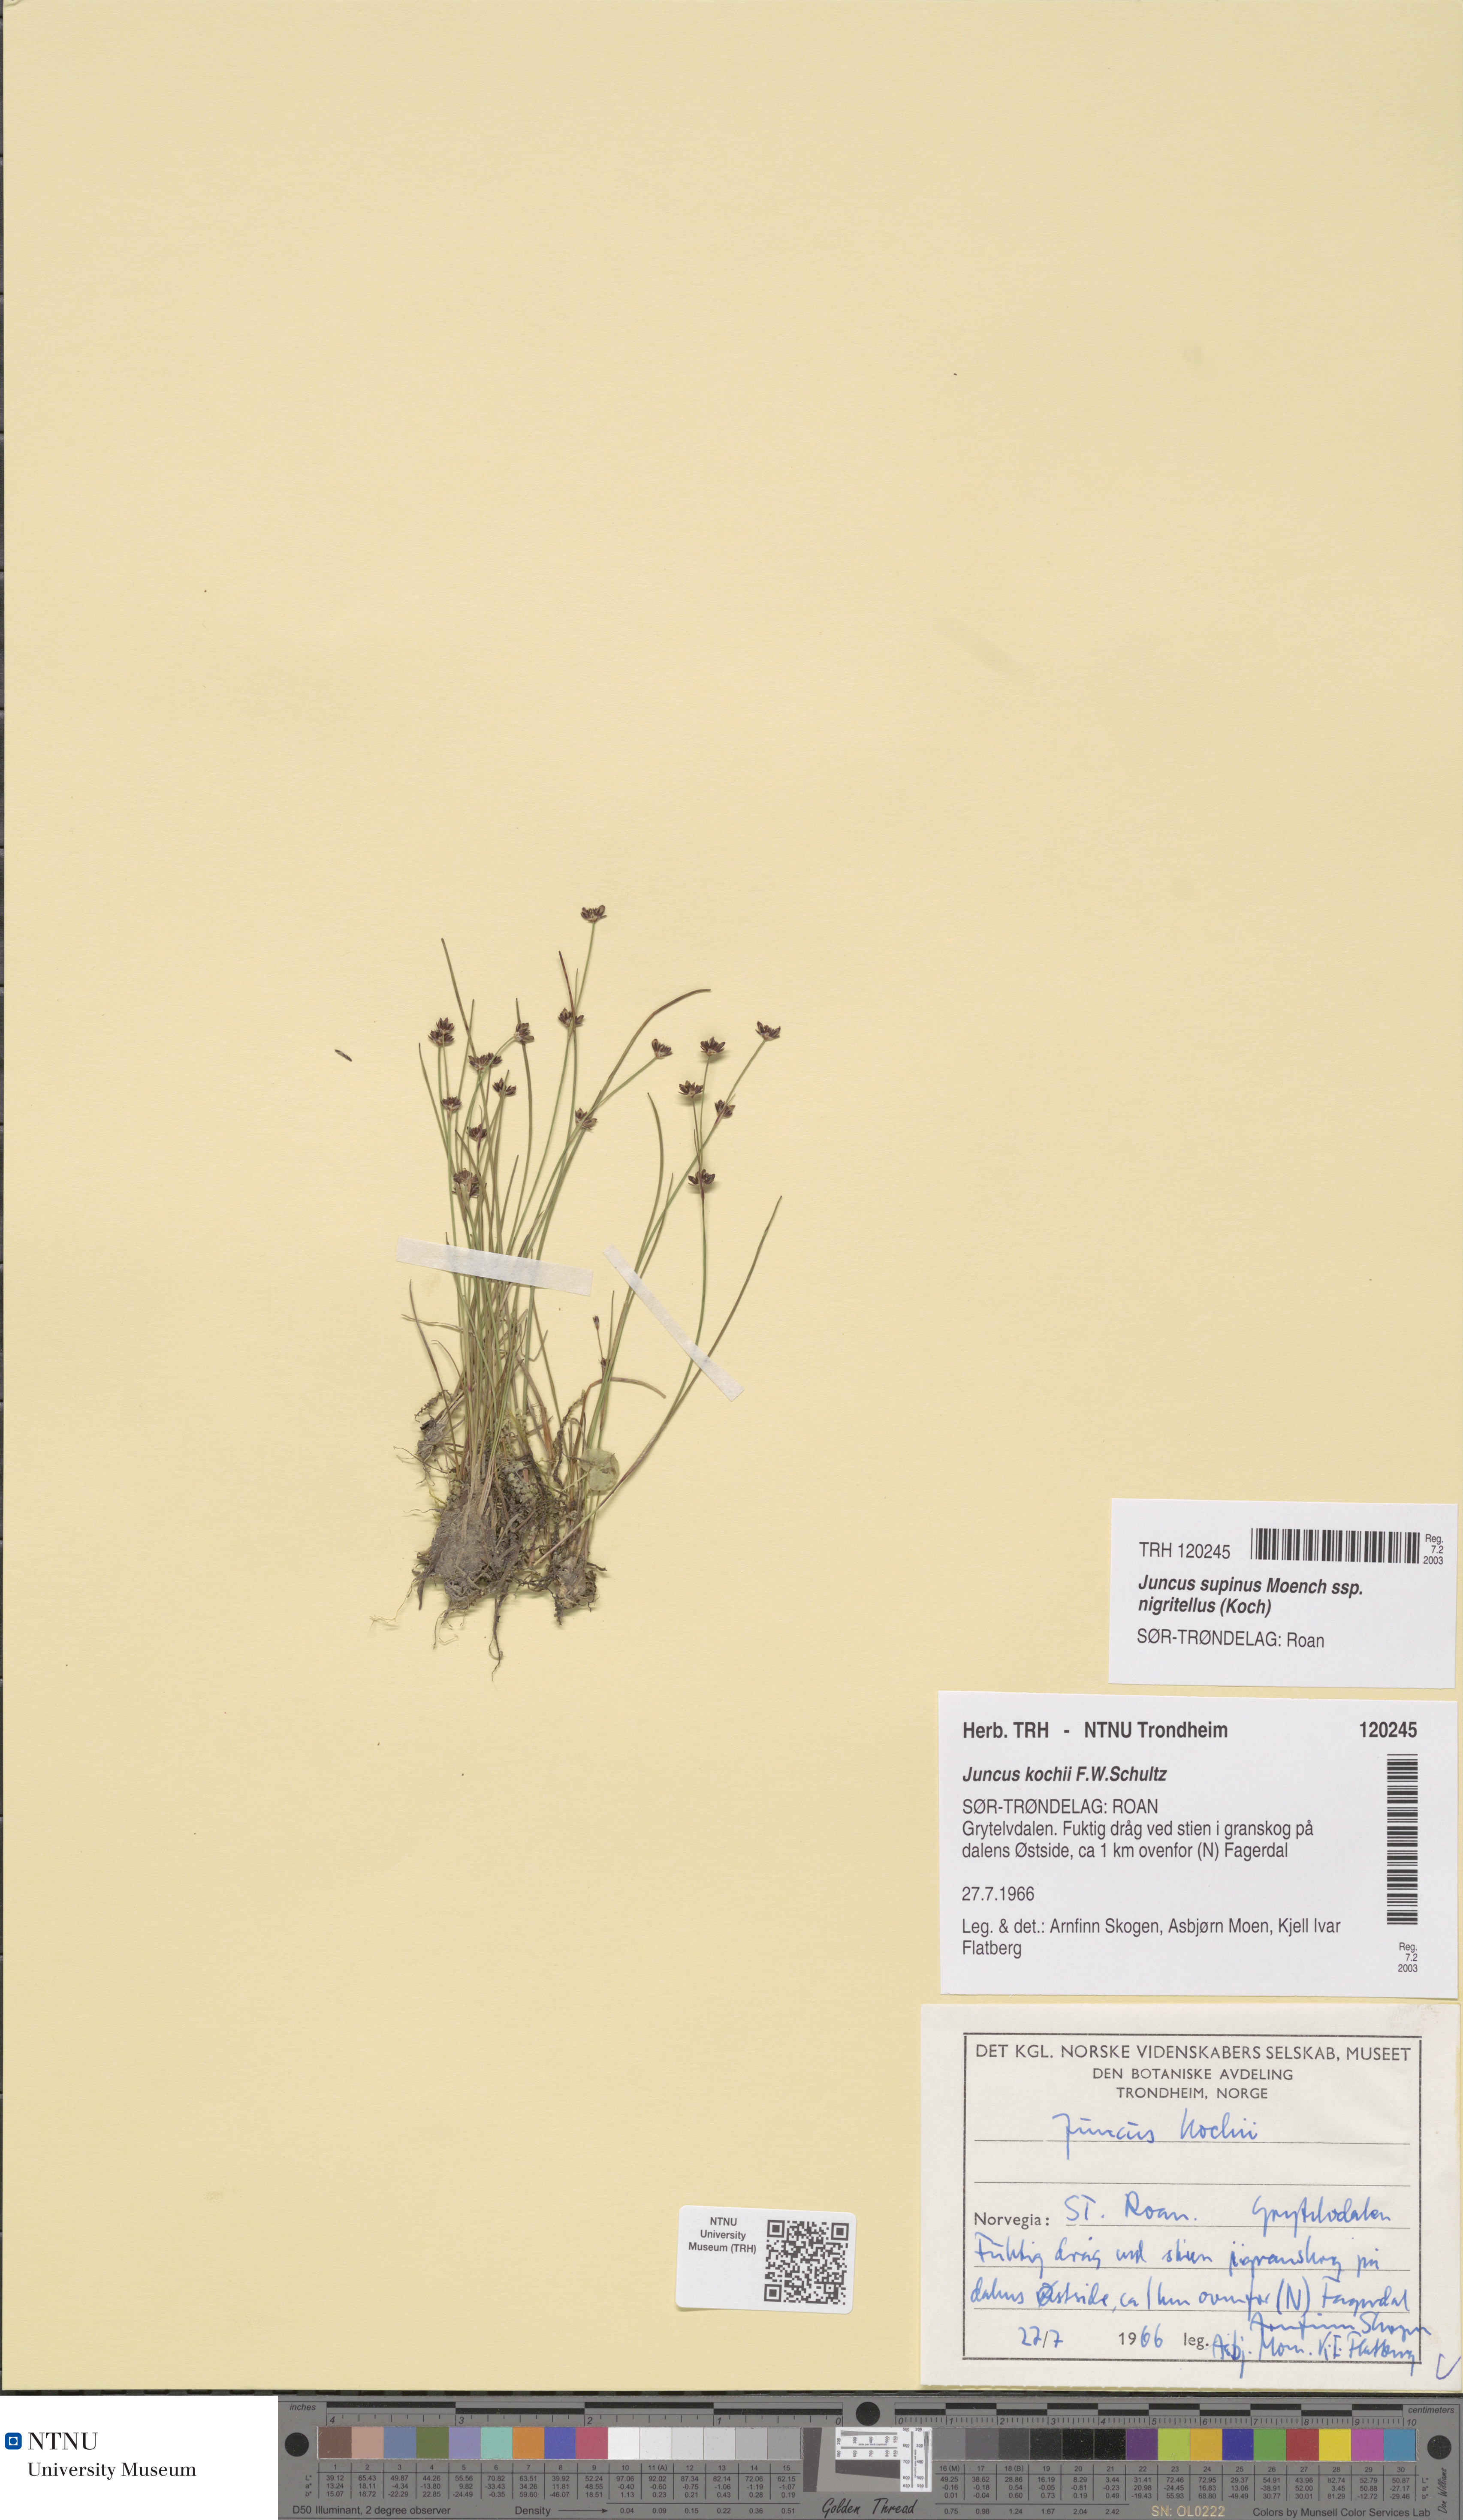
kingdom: Plantae
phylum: Tracheophyta
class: Liliopsida
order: Poales
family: Juncaceae
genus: Juncus
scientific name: Juncus bulbosus
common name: Bulbous rush
